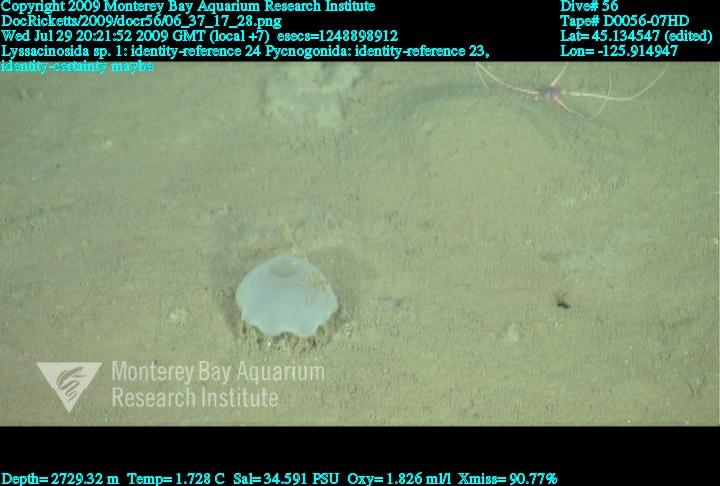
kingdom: Animalia
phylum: Porifera
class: Hexactinellida
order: Lyssacinosida
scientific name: Lyssacinosida
